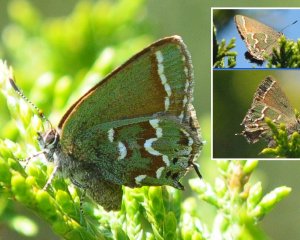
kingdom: Animalia
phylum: Arthropoda
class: Insecta
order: Lepidoptera
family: Lycaenidae
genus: Mitoura
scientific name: Mitoura gryneus
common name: Juniper Hairstreak
